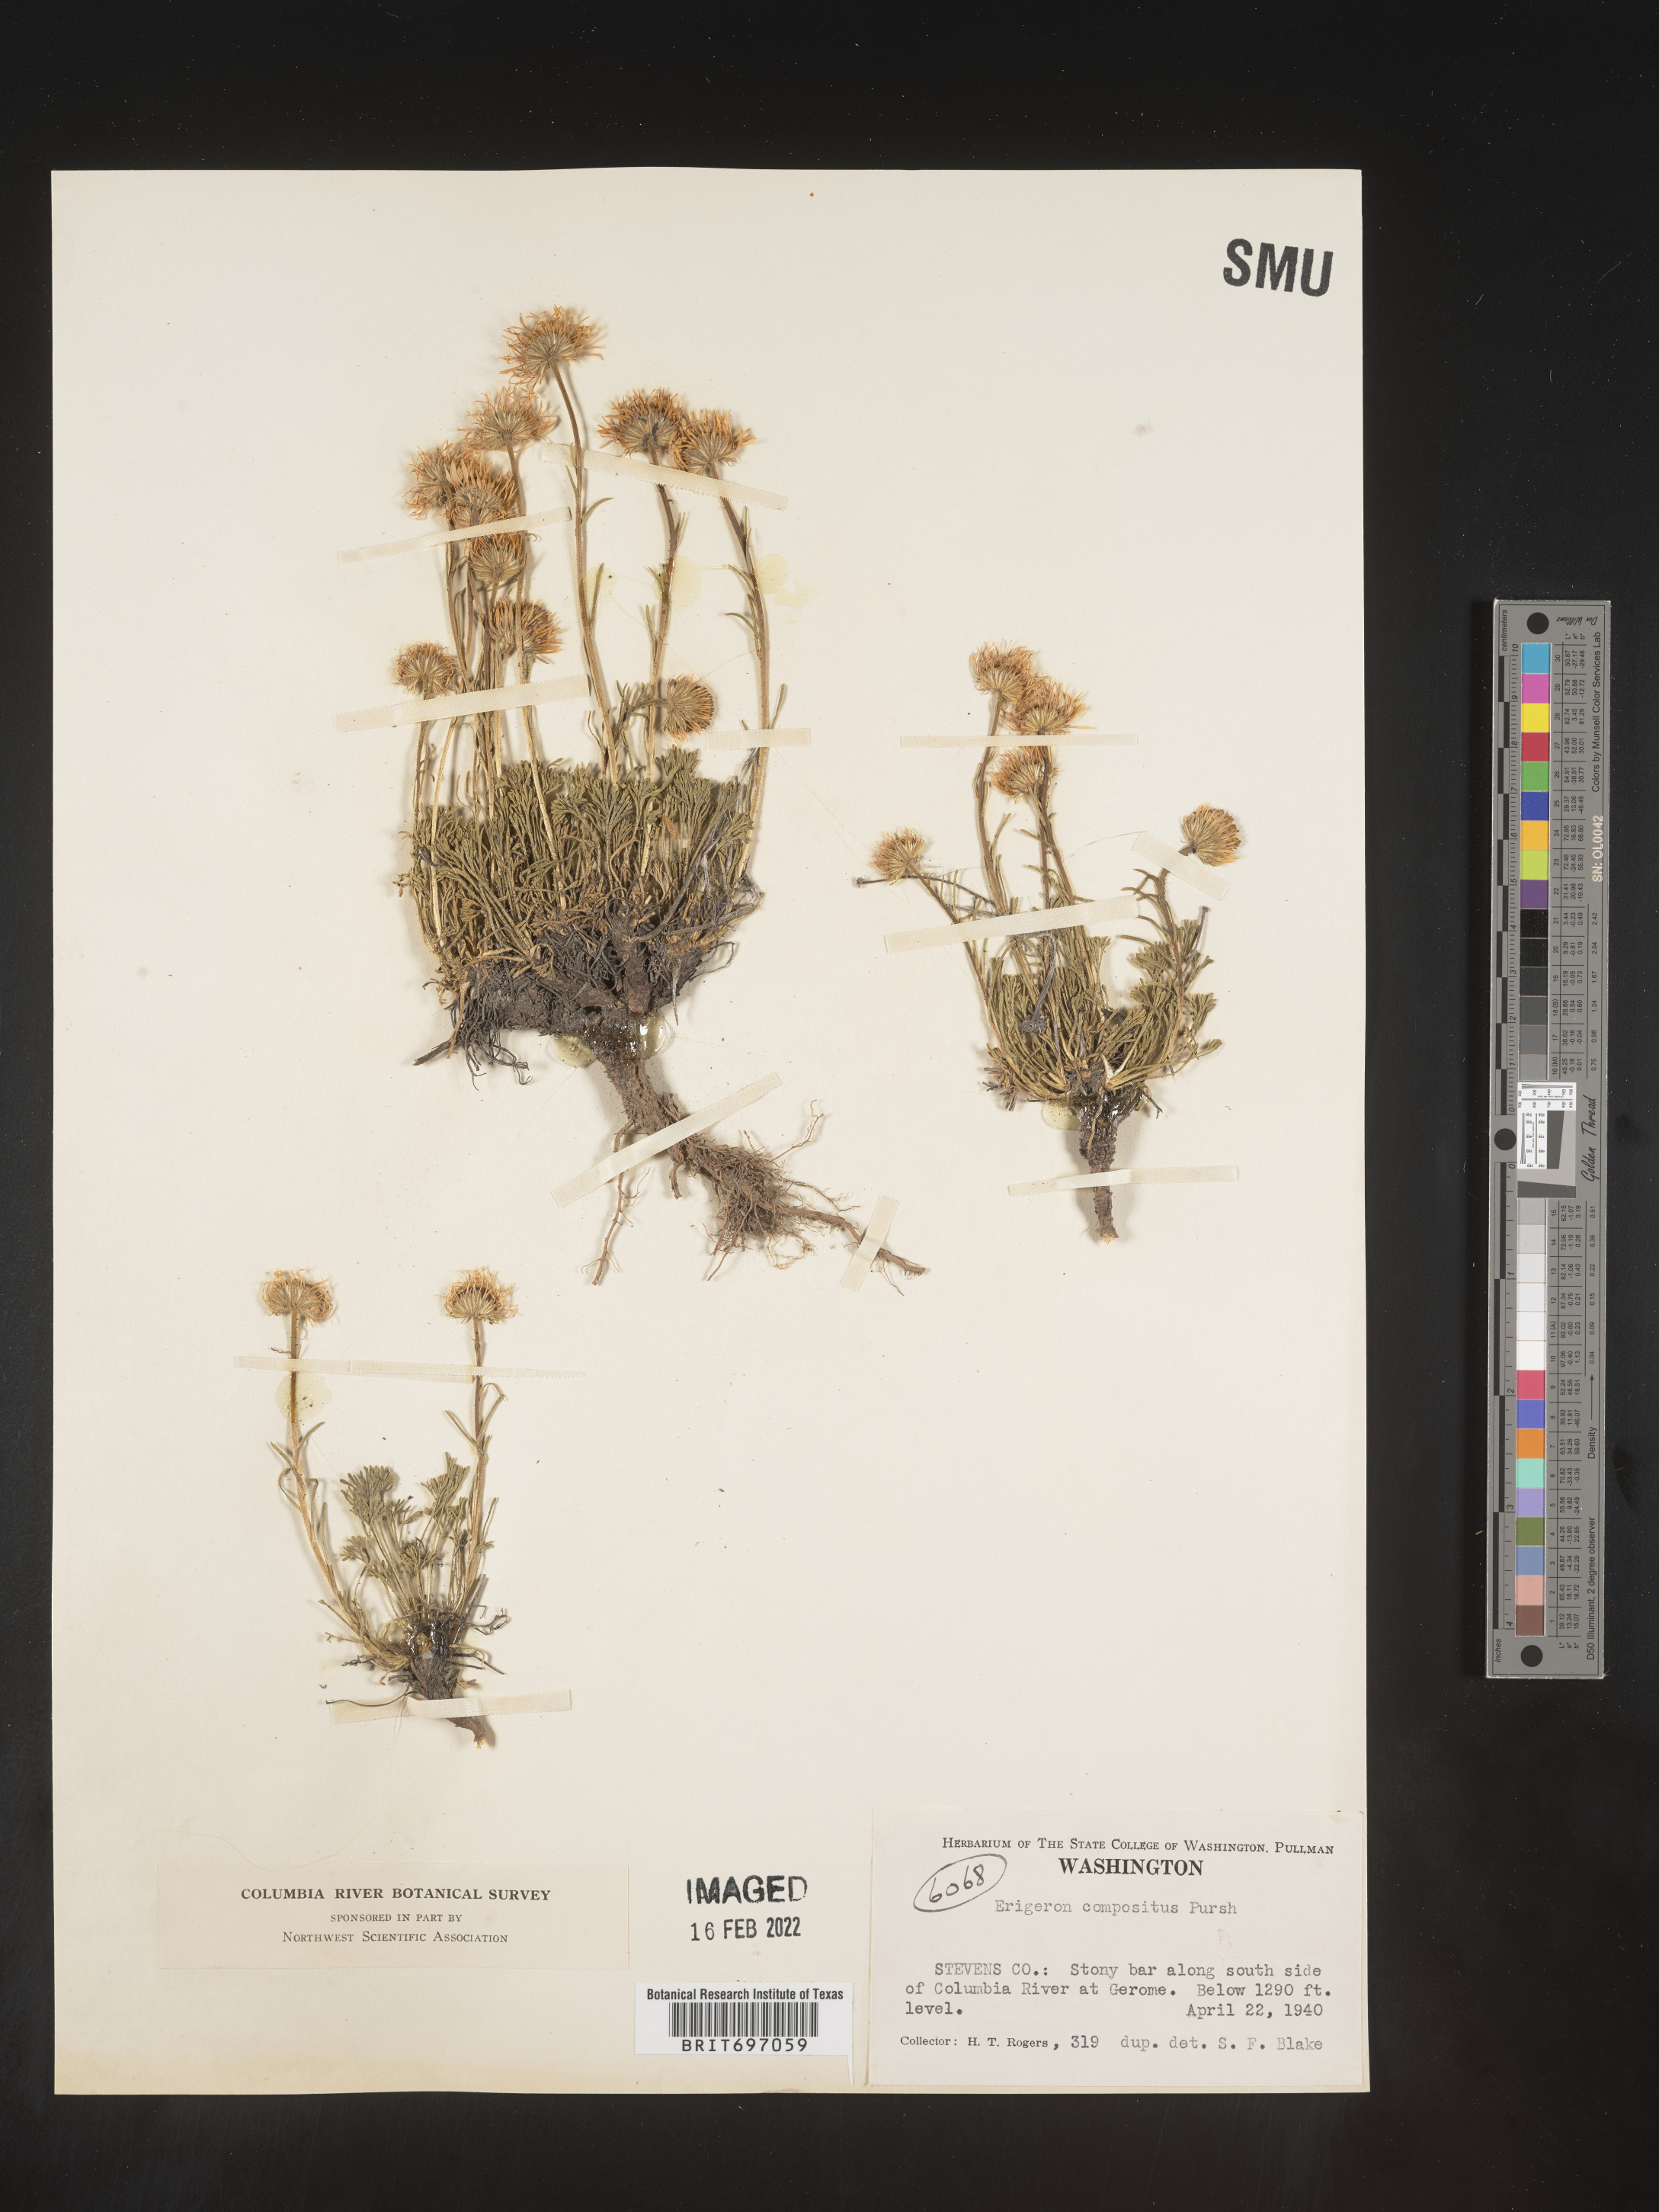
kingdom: Plantae
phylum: Tracheophyta
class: Magnoliopsida
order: Asterales
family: Asteraceae
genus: Erigeron
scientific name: Erigeron compositus
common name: Dwarf mountain fleabane
